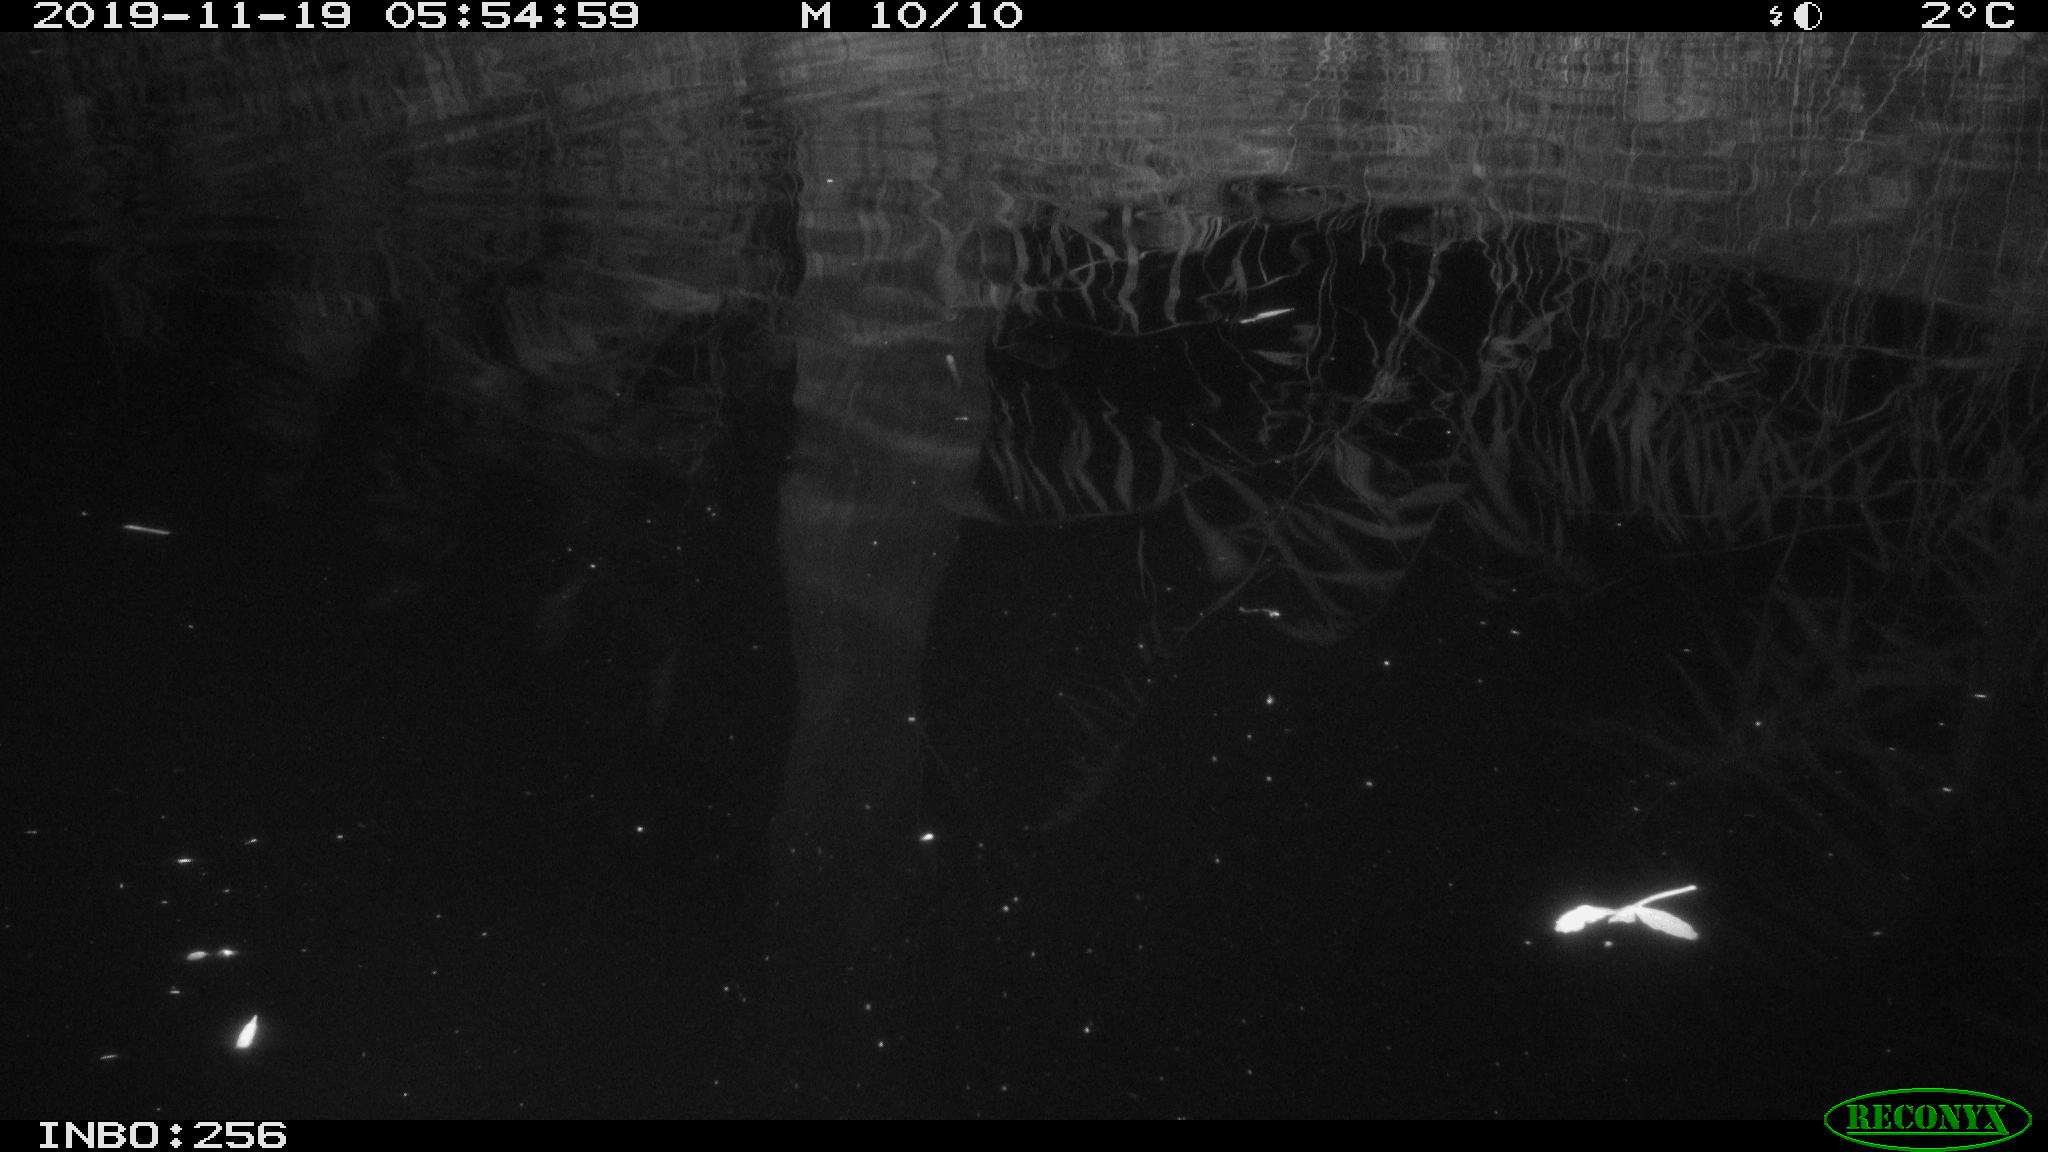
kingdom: Animalia
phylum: Chordata
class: Mammalia
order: Rodentia
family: Muridae
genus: Rattus
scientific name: Rattus norvegicus
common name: Brown rat
